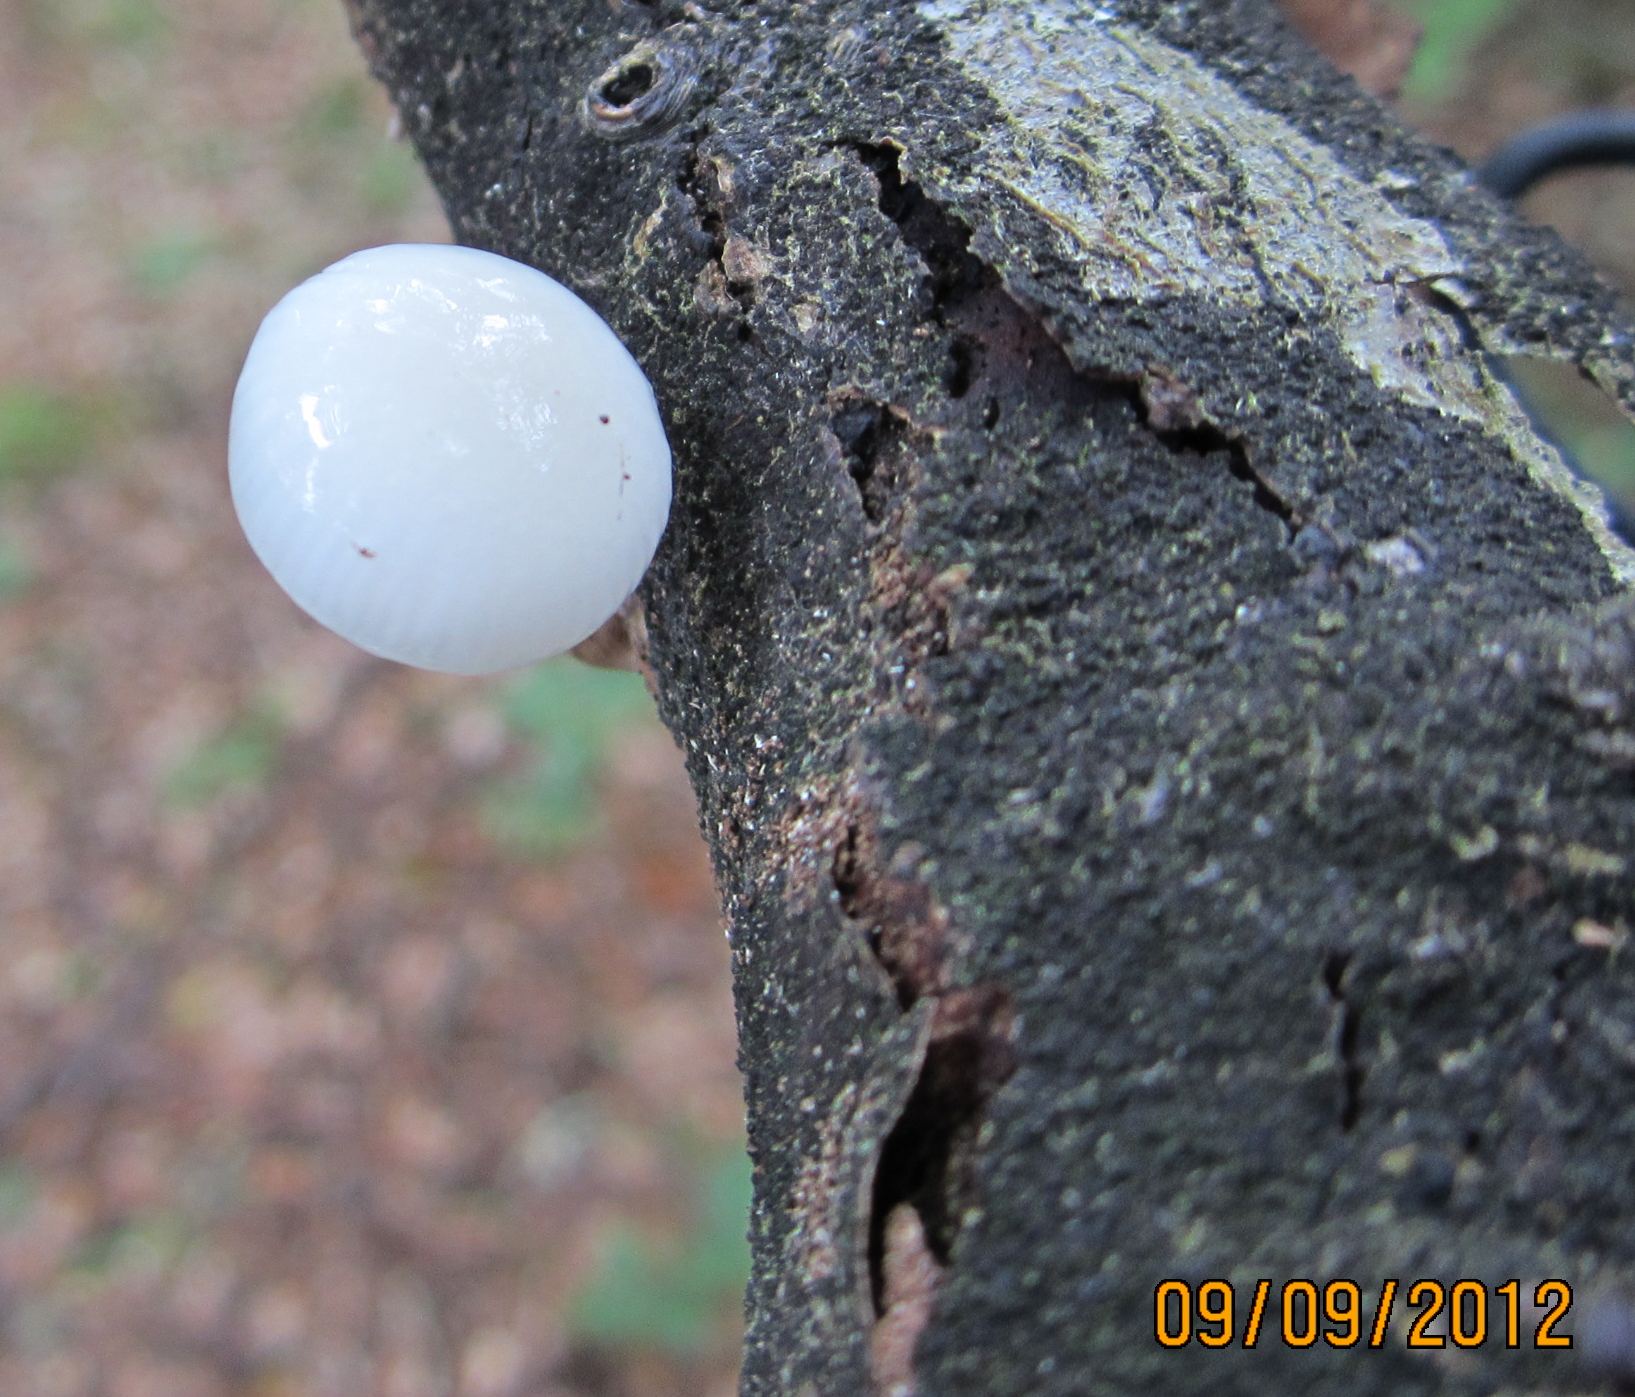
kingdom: Fungi
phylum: Basidiomycota
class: Agaricomycetes
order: Agaricales
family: Physalacriaceae
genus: Mucidula
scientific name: Mucidula mucida
